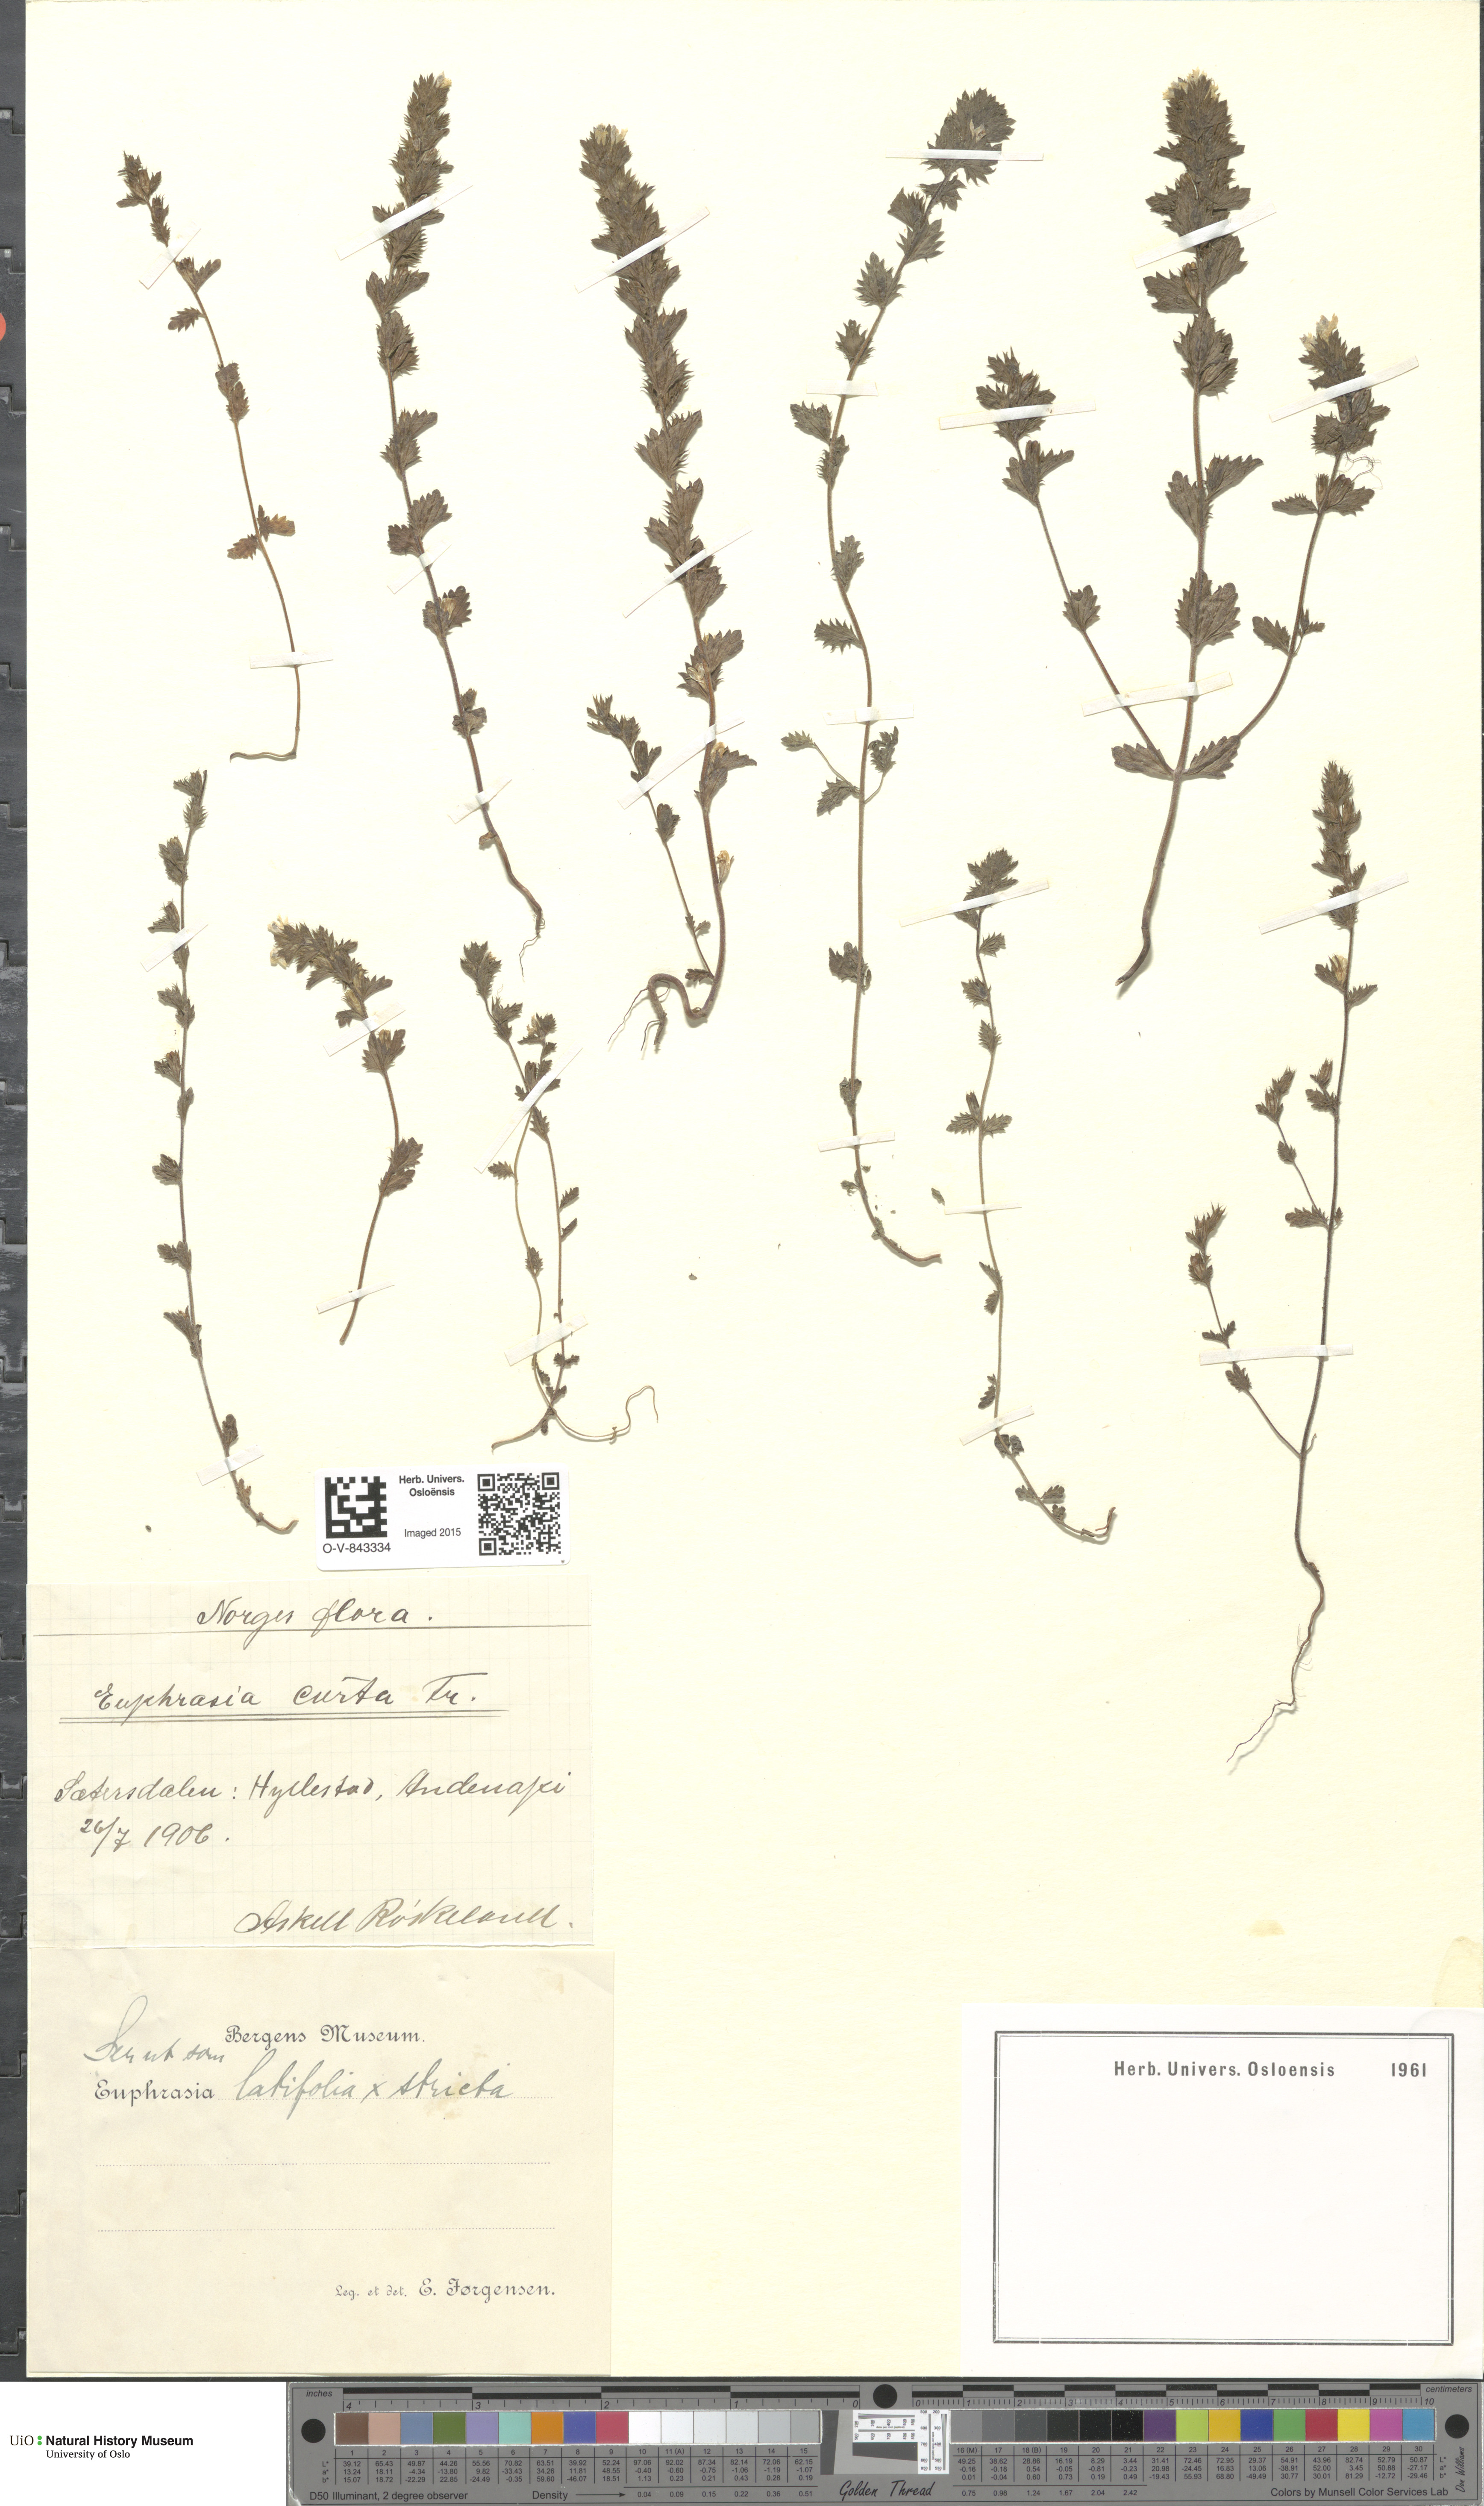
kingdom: Plantae
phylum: Tracheophyta
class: Magnoliopsida
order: Lamiales
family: Orobanchaceae
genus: Euphrasia
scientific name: Euphrasia wettsteinii
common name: Wettstein's eyebright
